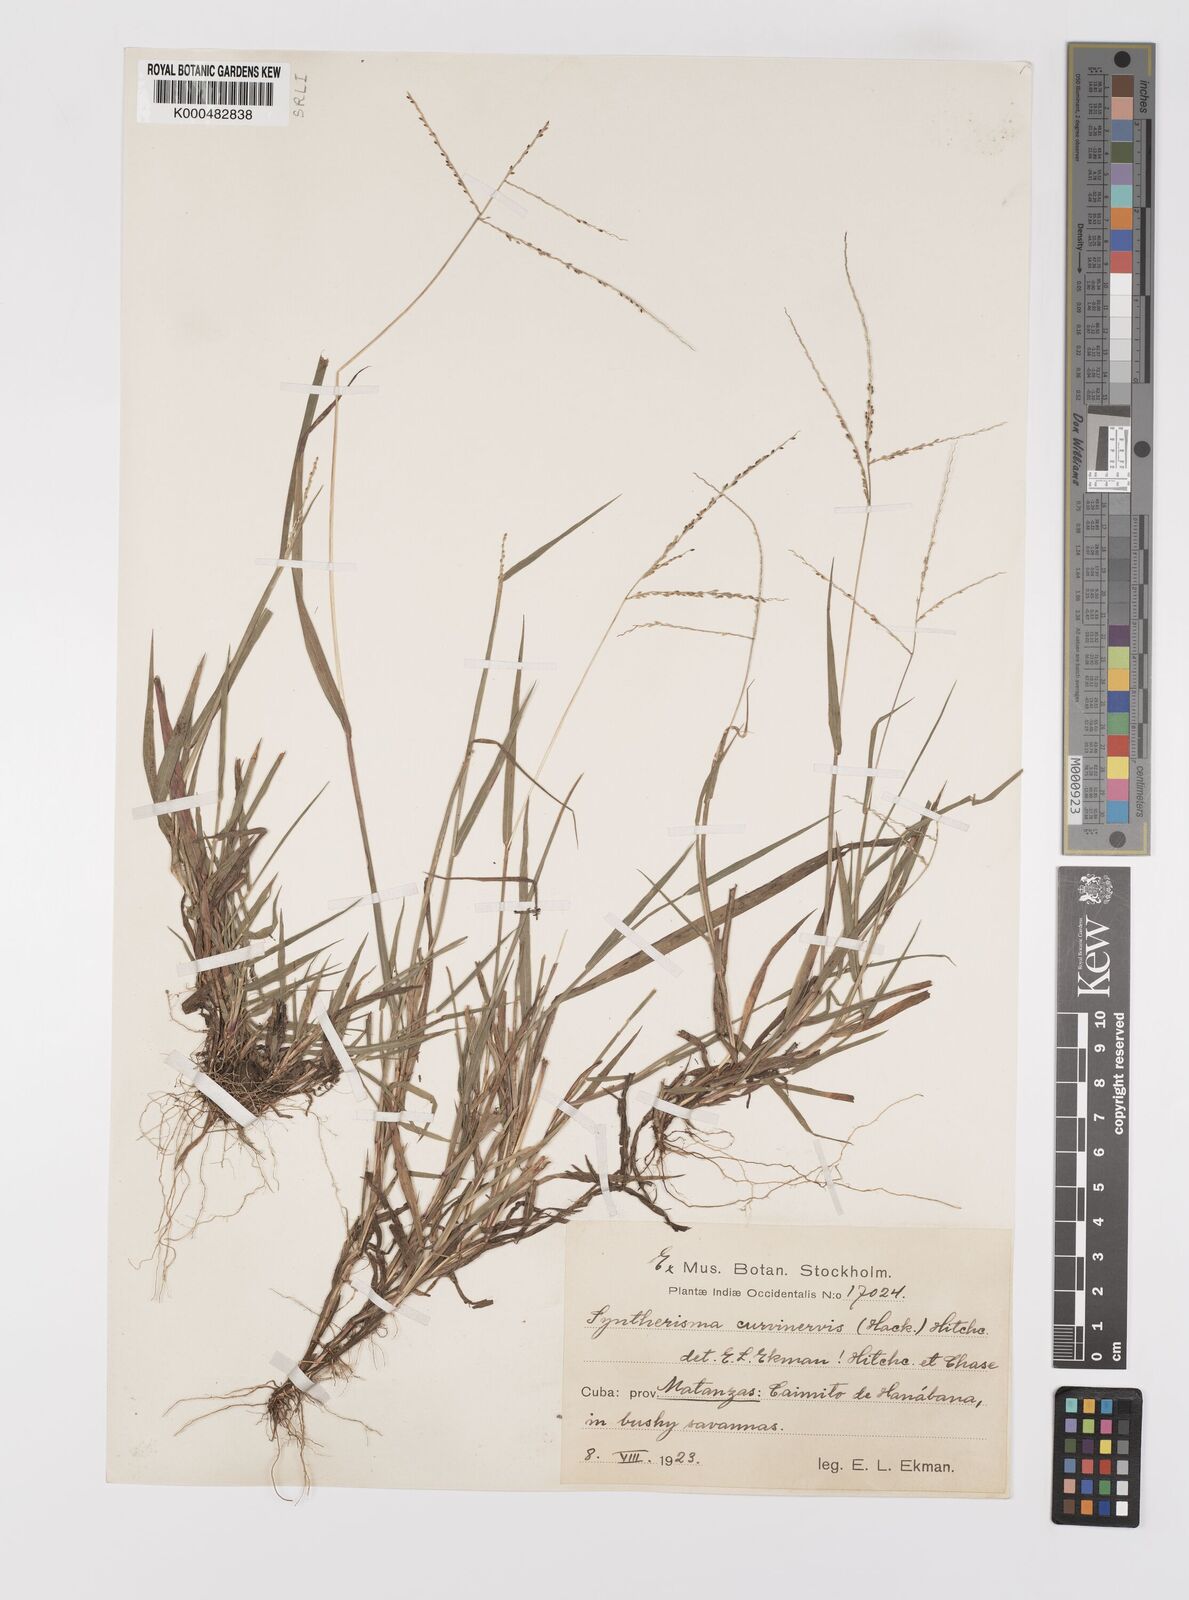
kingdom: Plantae
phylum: Tracheophyta
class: Liliopsida
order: Poales
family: Poaceae
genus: Digitaria
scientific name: Digitaria curvinervis
